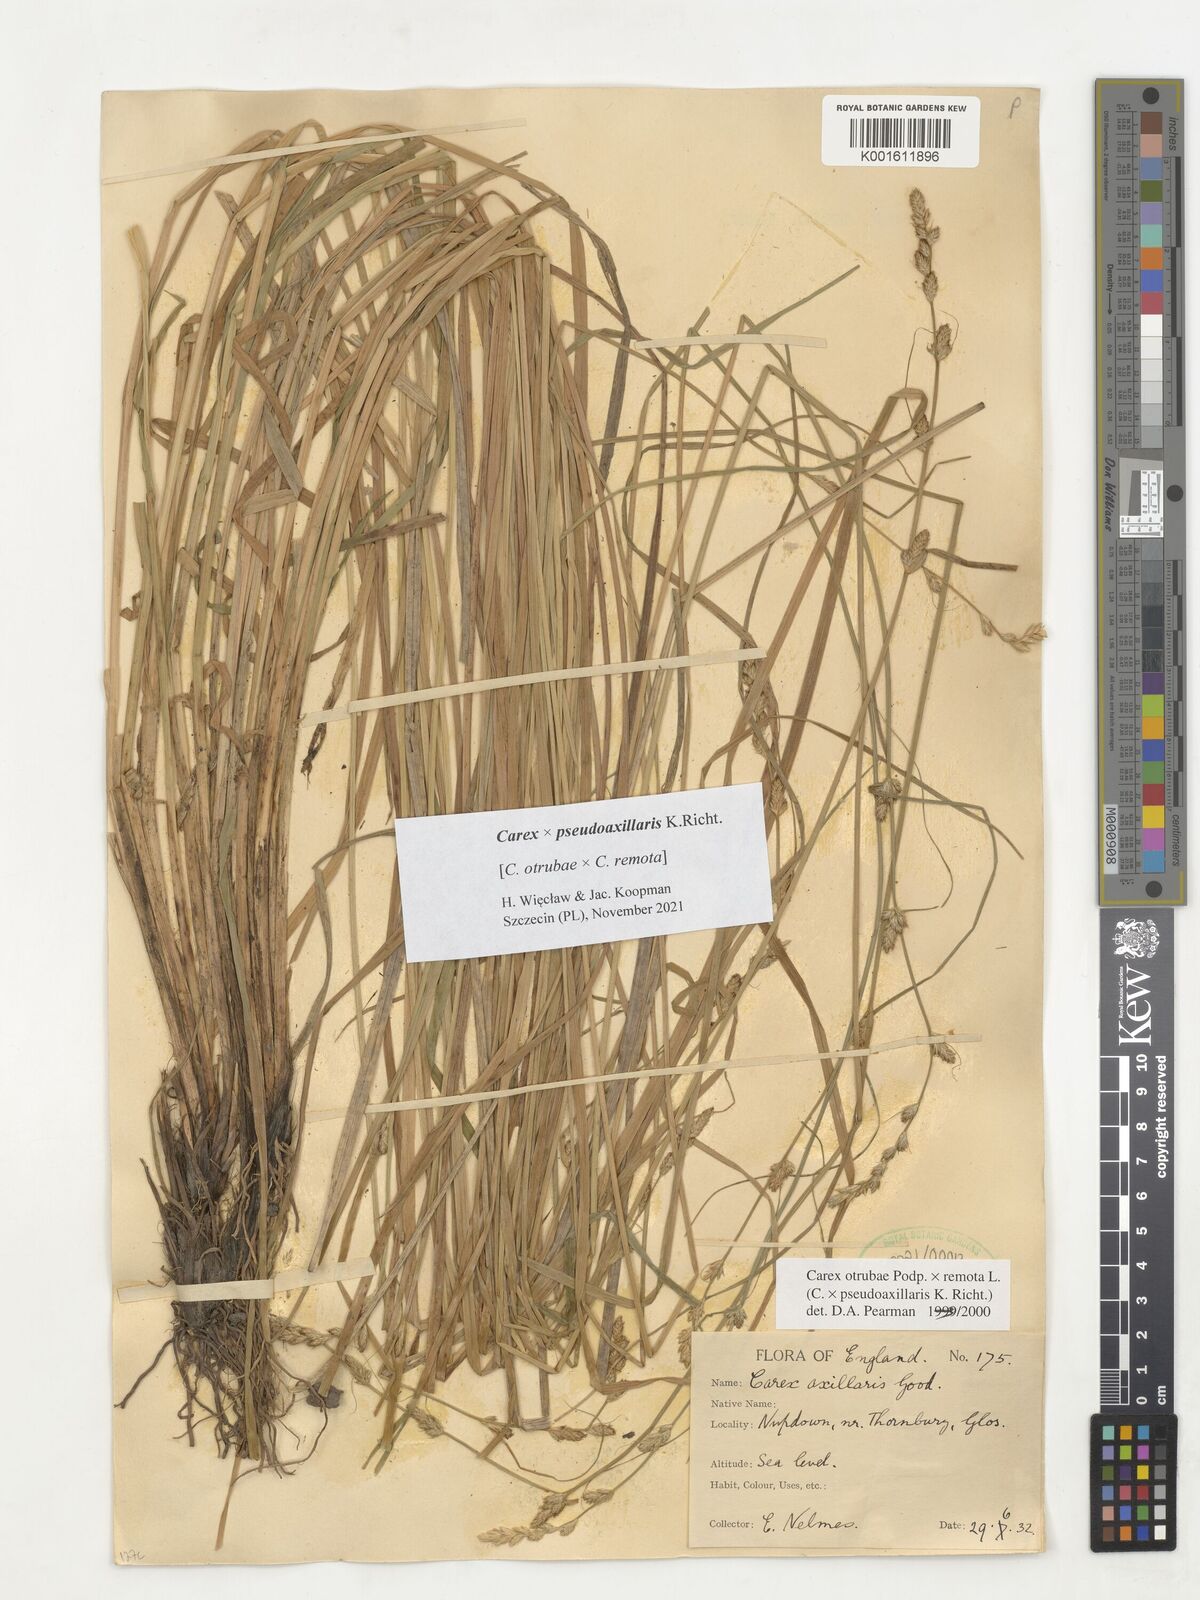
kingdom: Plantae
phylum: Tracheophyta
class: Liliopsida
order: Poales
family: Cyperaceae
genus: Carex
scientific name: Carex pseudoaxillaris
